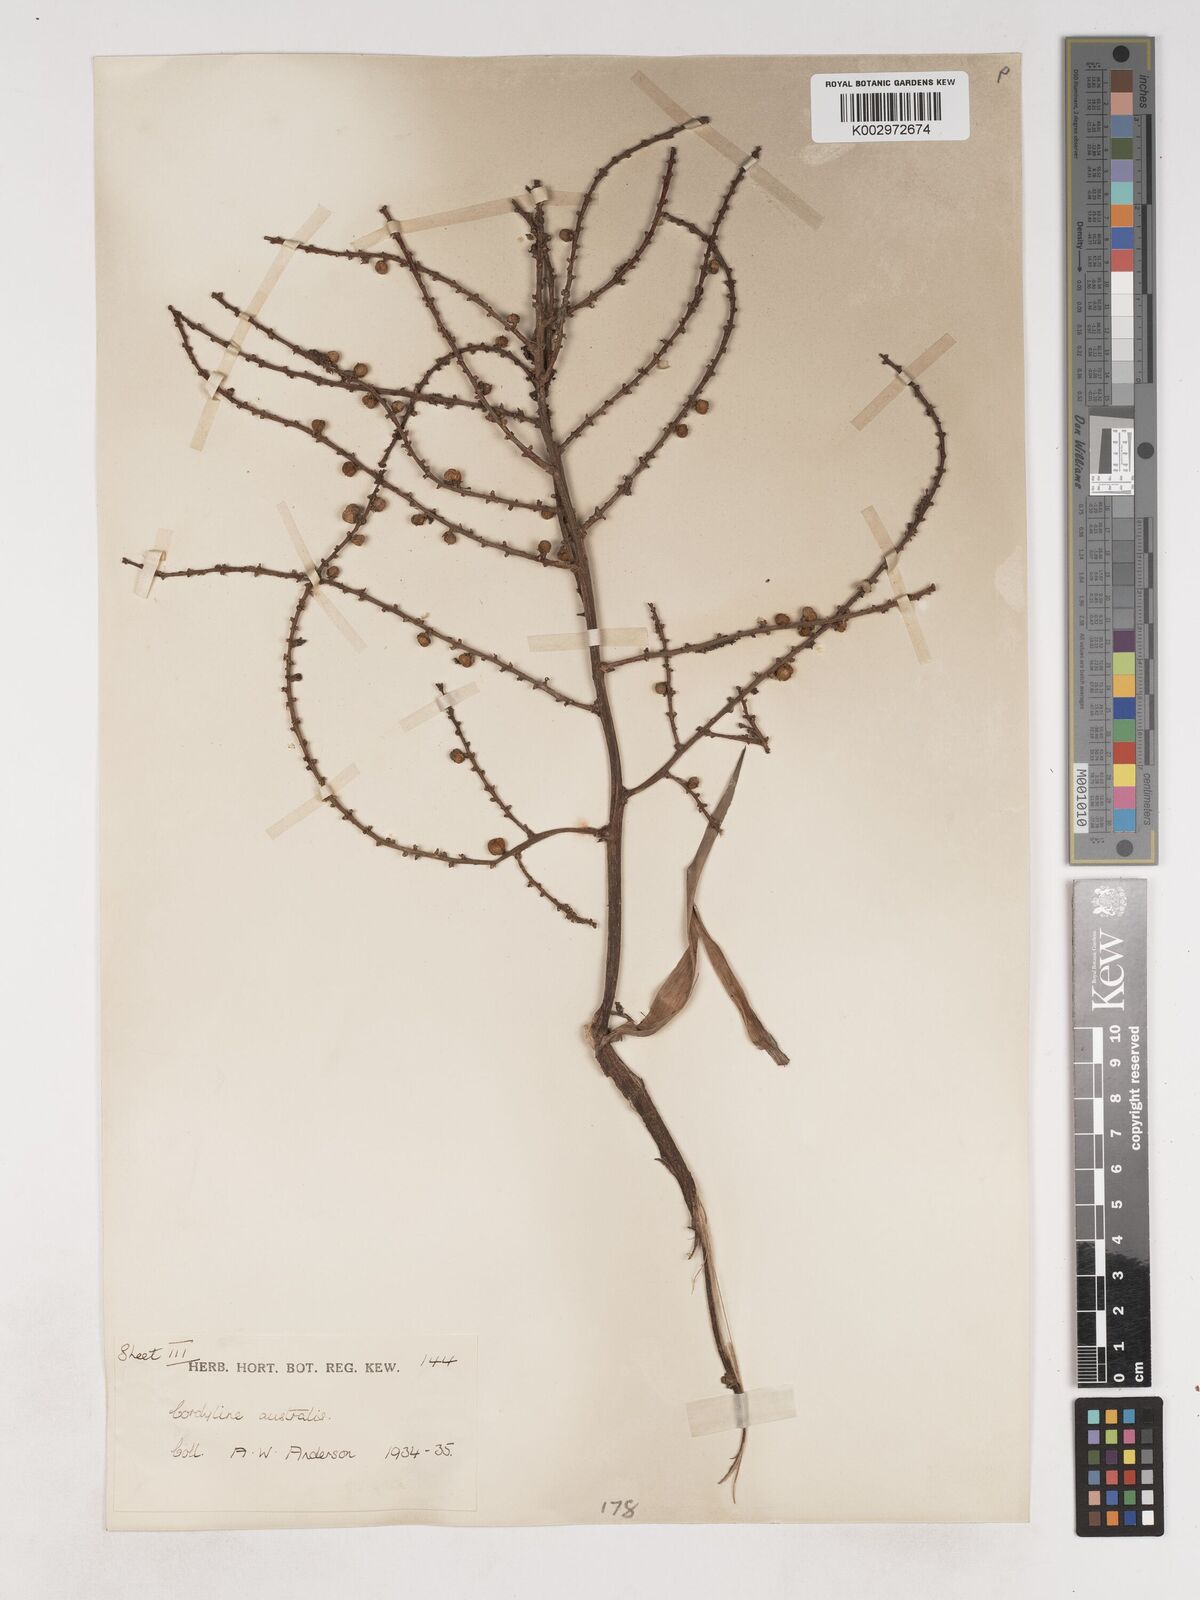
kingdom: Plantae
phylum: Tracheophyta
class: Liliopsida
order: Asparagales
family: Asparagaceae
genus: Cordyline
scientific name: Cordyline australis
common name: Cabbage-palm
